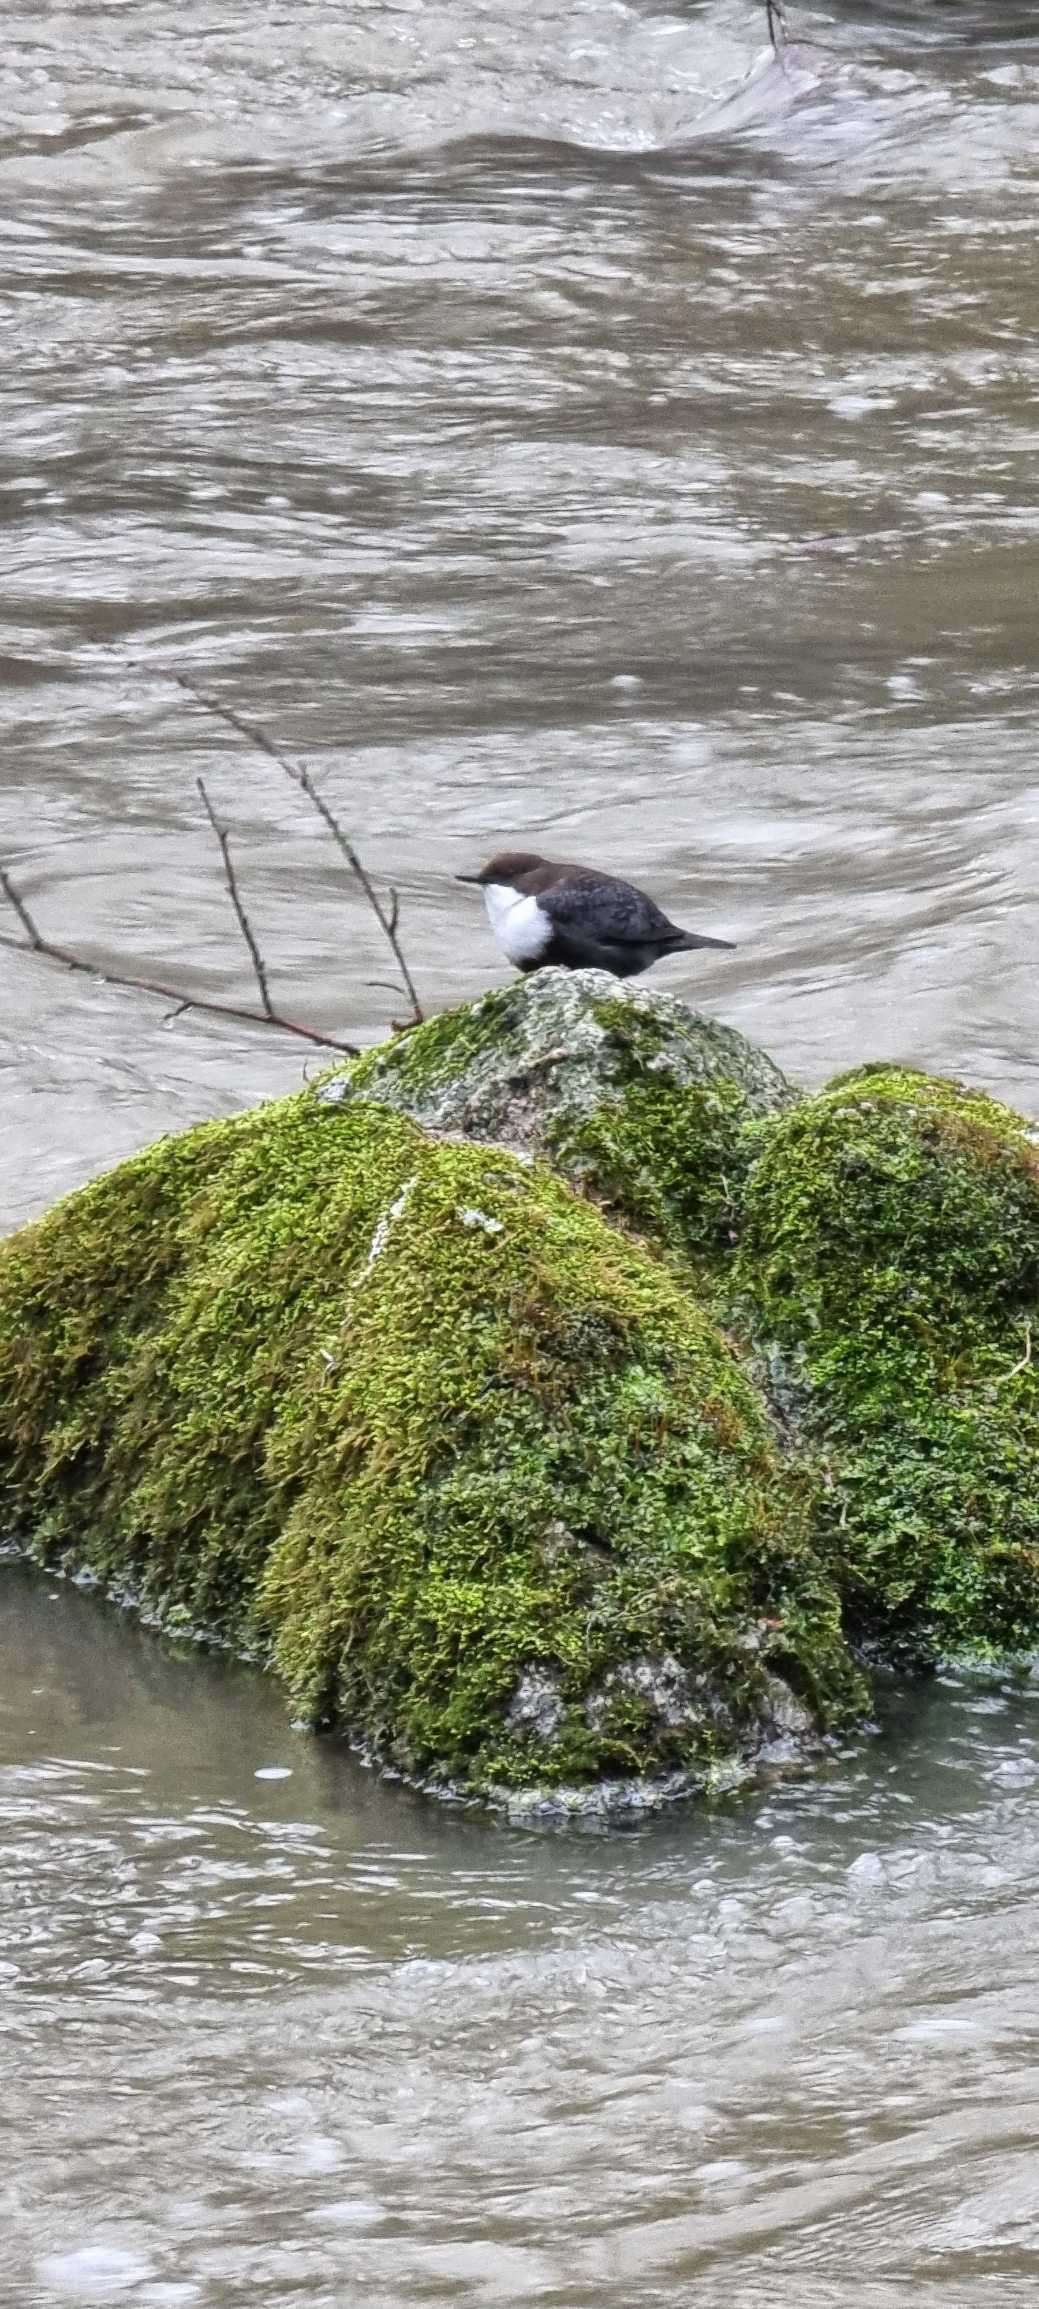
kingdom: Animalia
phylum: Chordata
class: Aves
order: Passeriformes
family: Cinclidae
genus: Cinclus
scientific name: Cinclus cinclus
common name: Vandstær
